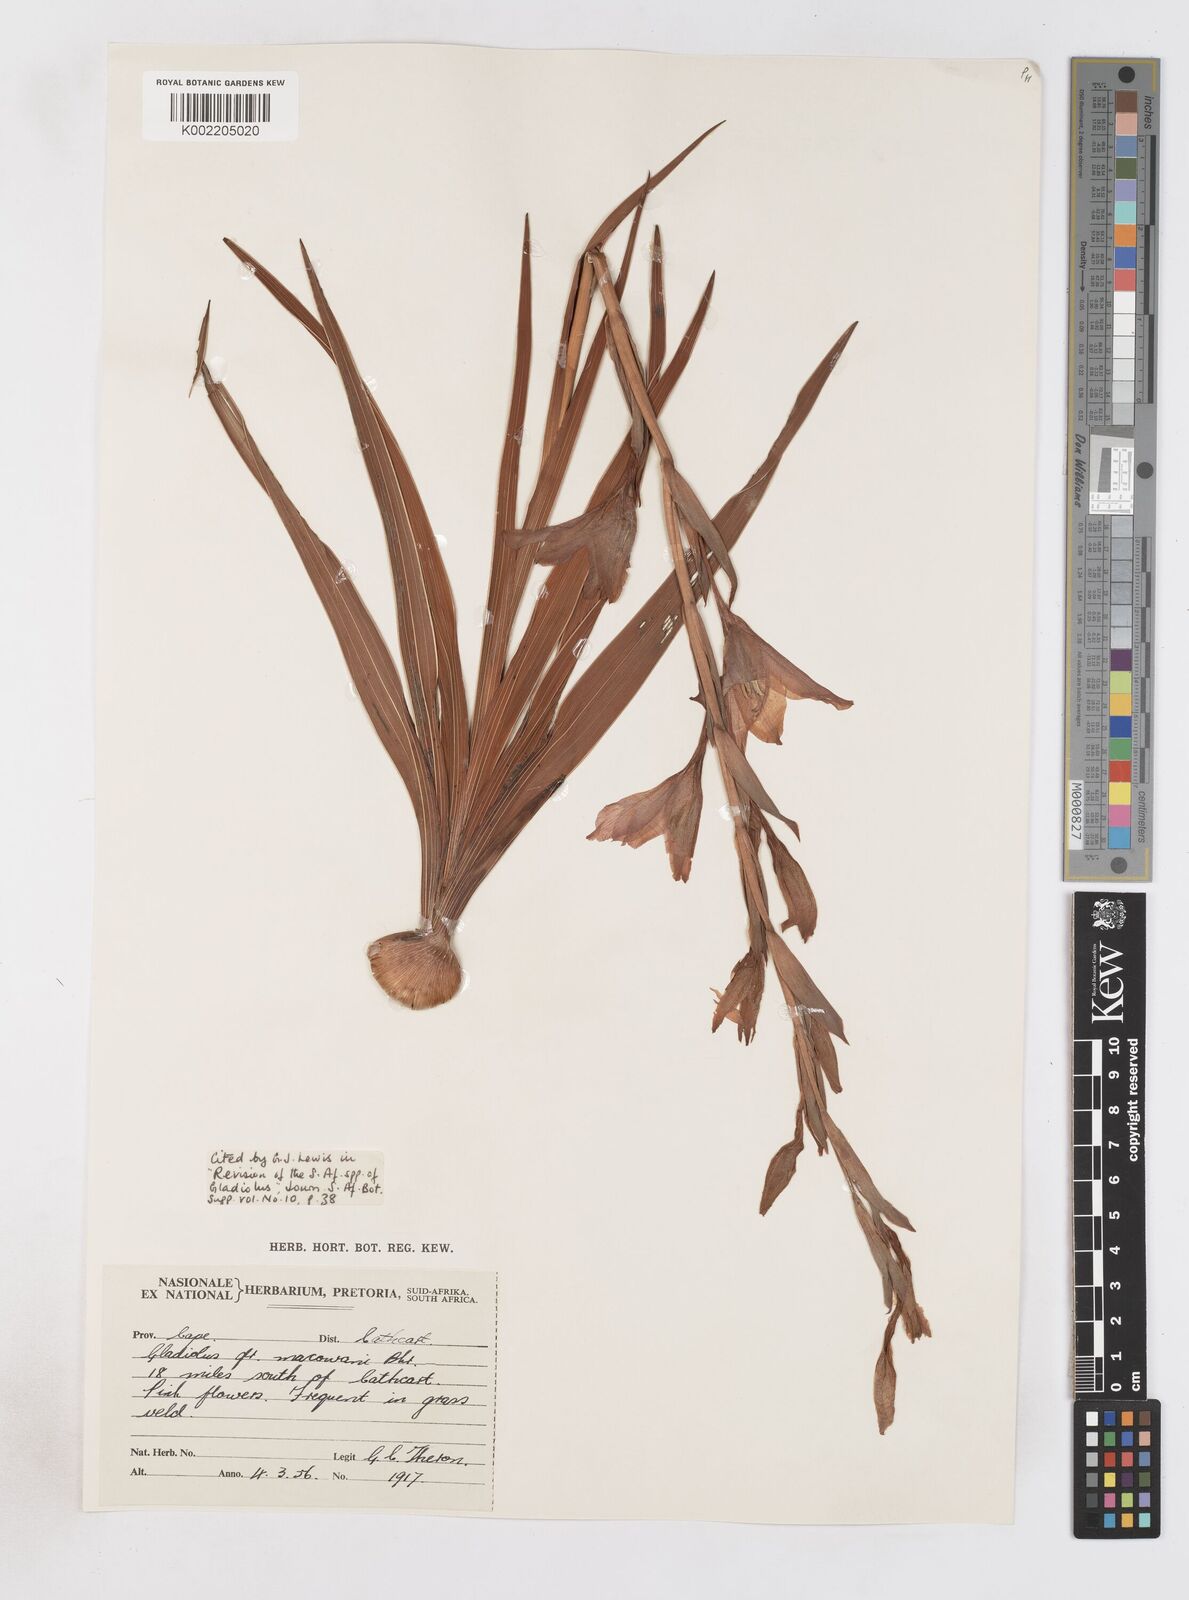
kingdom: Plantae
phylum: Tracheophyta
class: Liliopsida
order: Asparagales
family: Iridaceae
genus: Gladiolus
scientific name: Gladiolus mortonius
